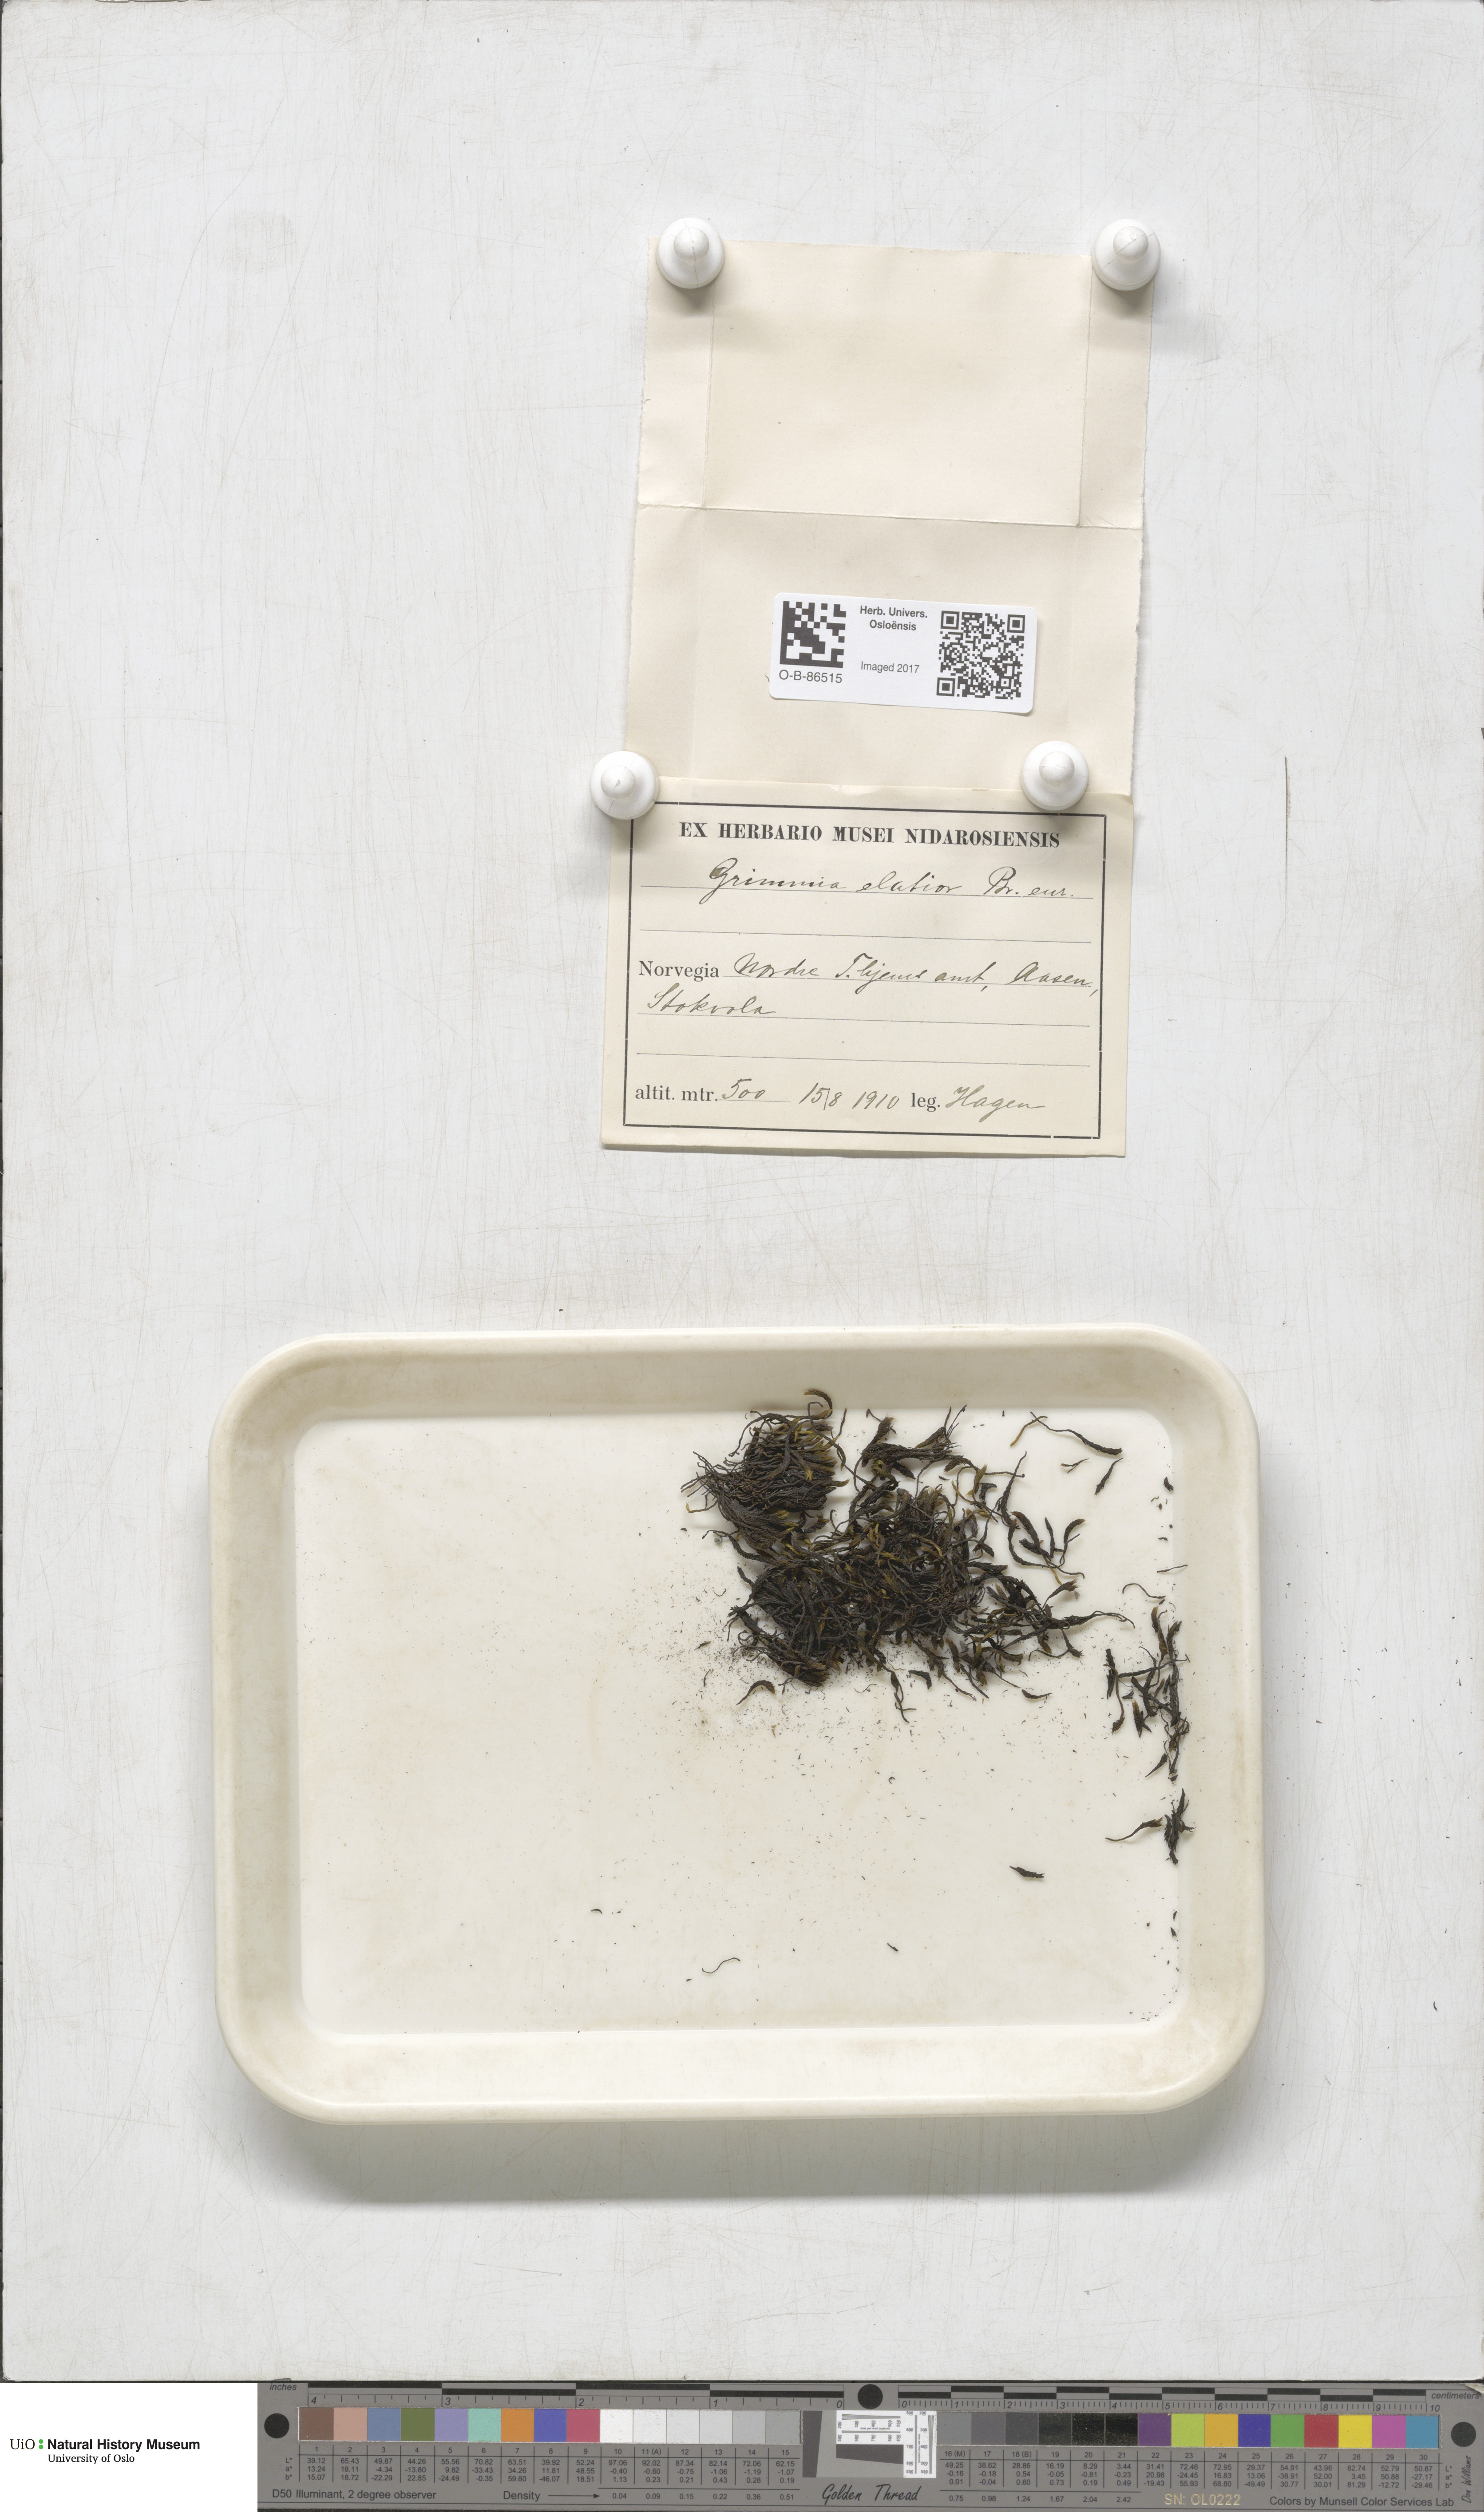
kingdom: Plantae
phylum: Bryophyta
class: Bryopsida
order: Grimmiales
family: Grimmiaceae
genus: Grimmia
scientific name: Grimmia elatior
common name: Large grimmia
